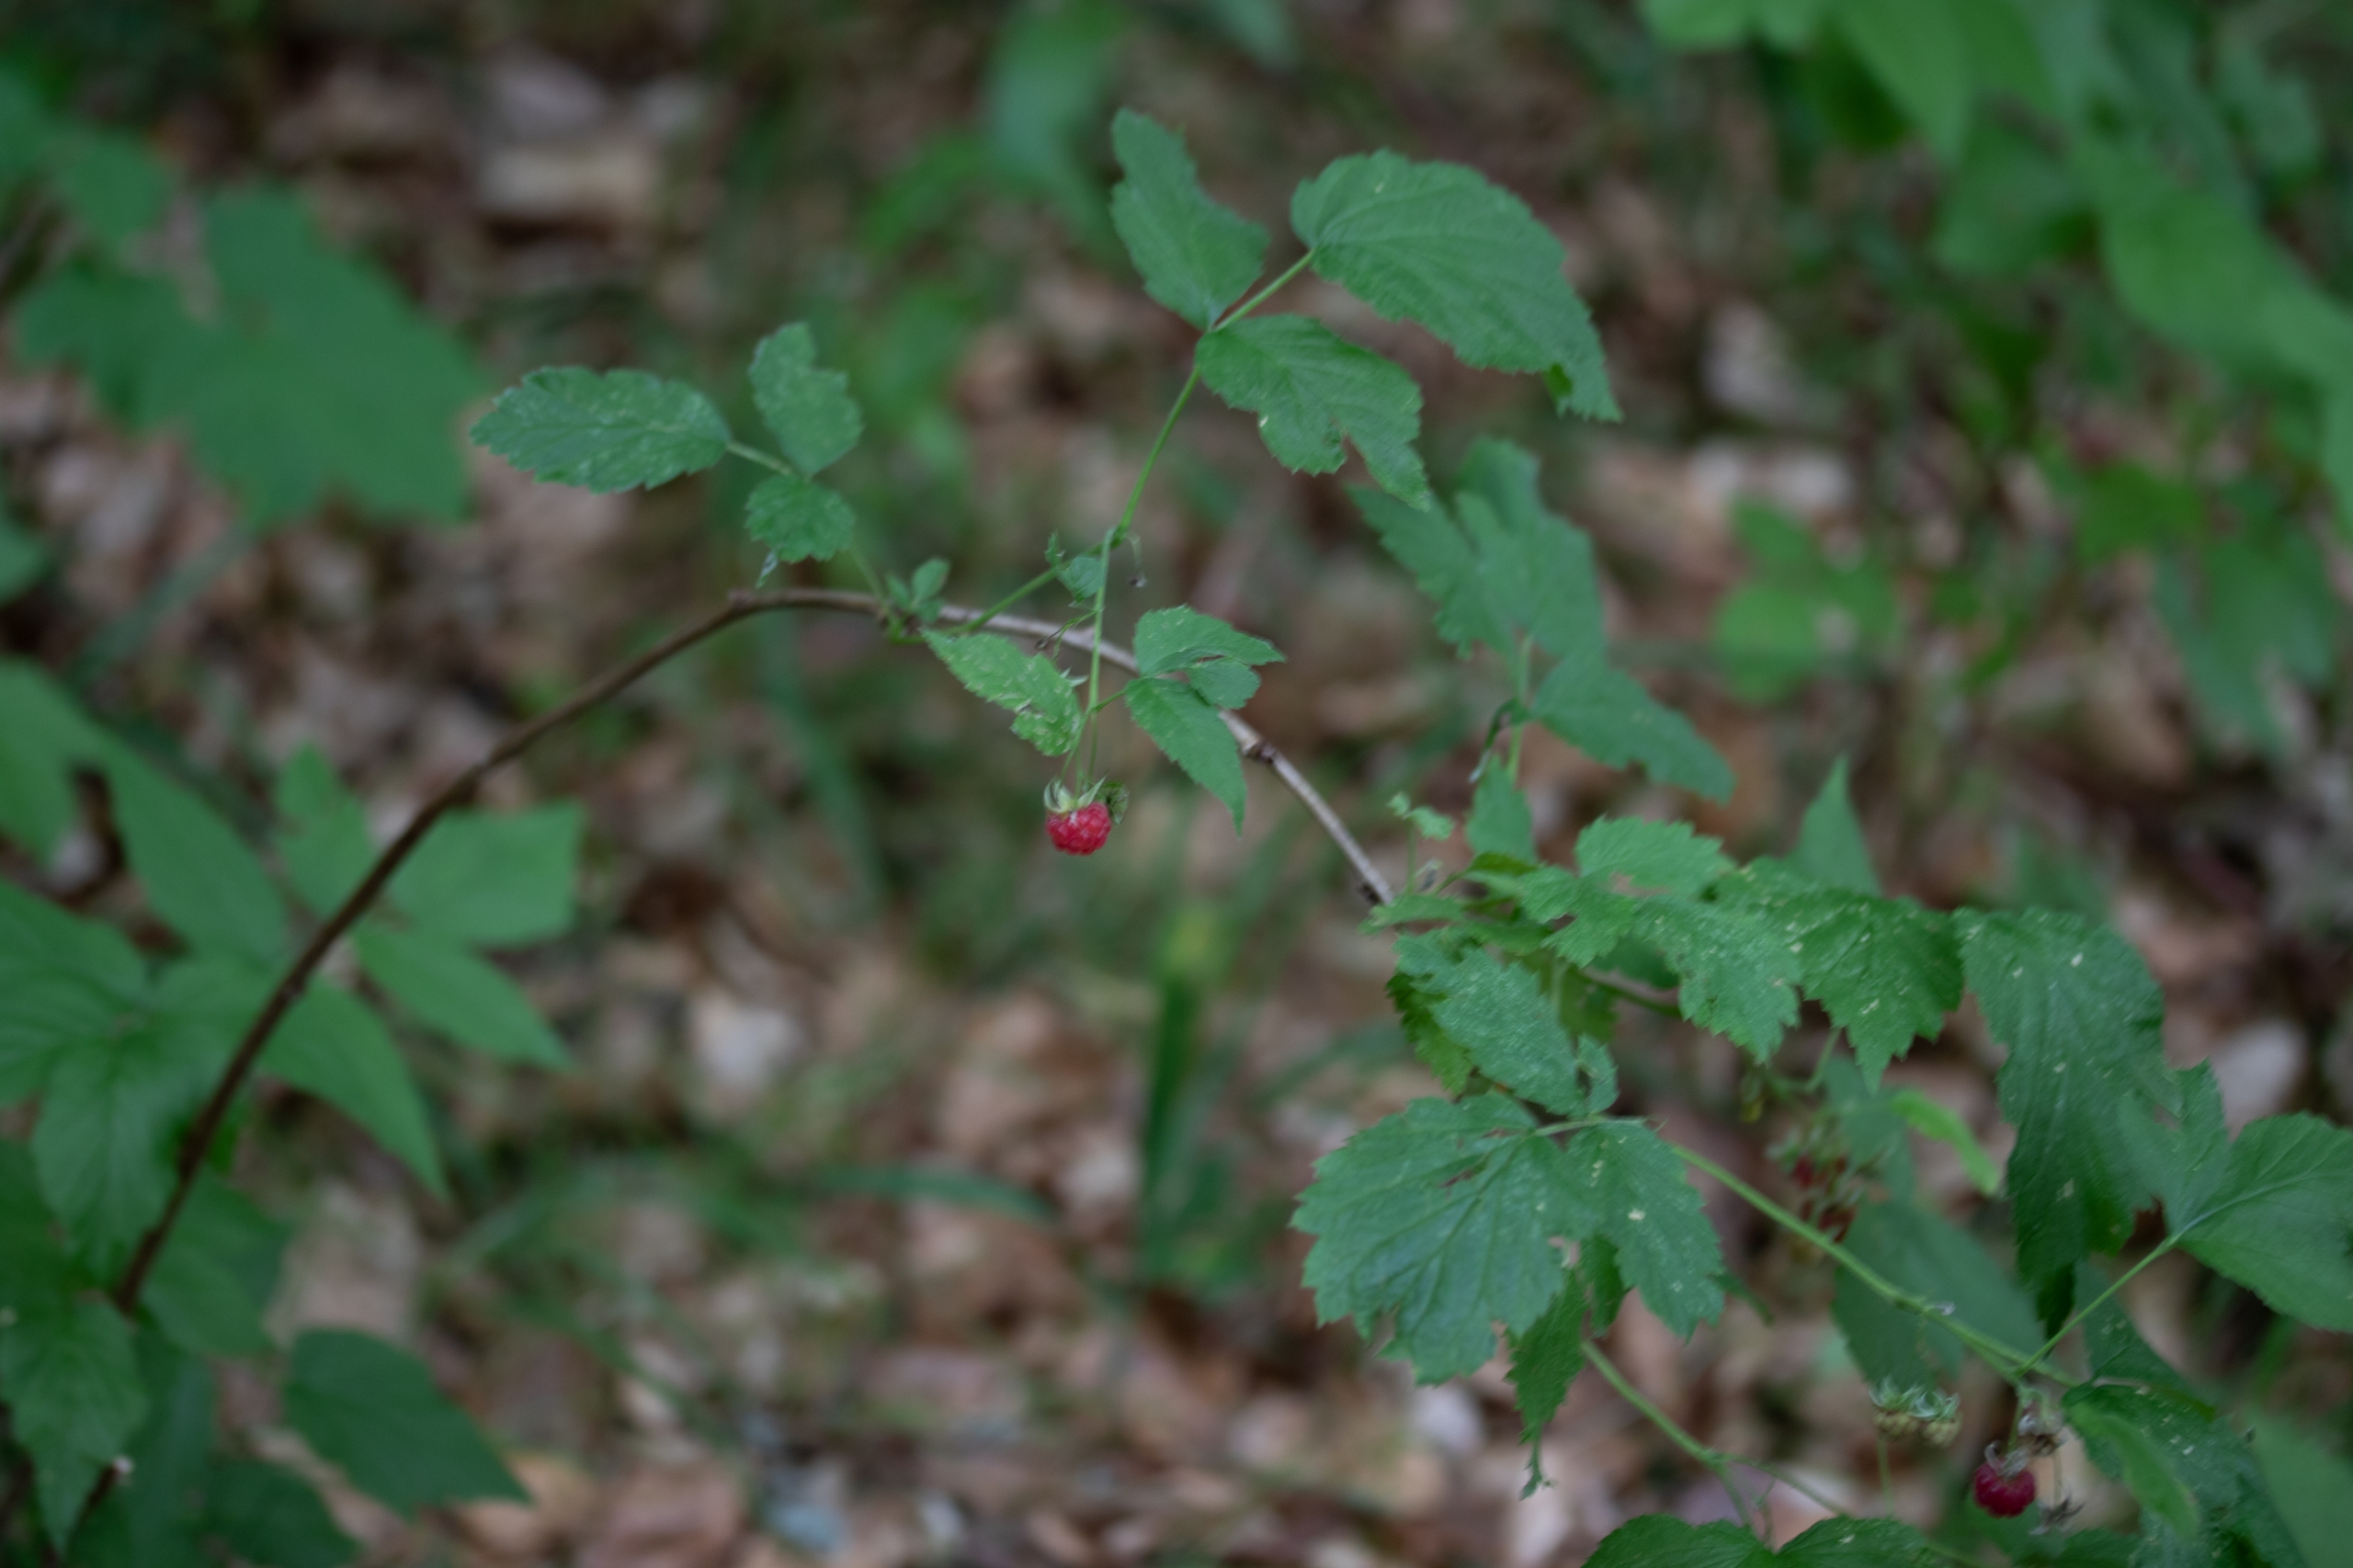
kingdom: Plantae
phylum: Tracheophyta
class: Magnoliopsida
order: Rosales
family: Rosaceae
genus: Rubus
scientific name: Rubus idaeus
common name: Hindbær
